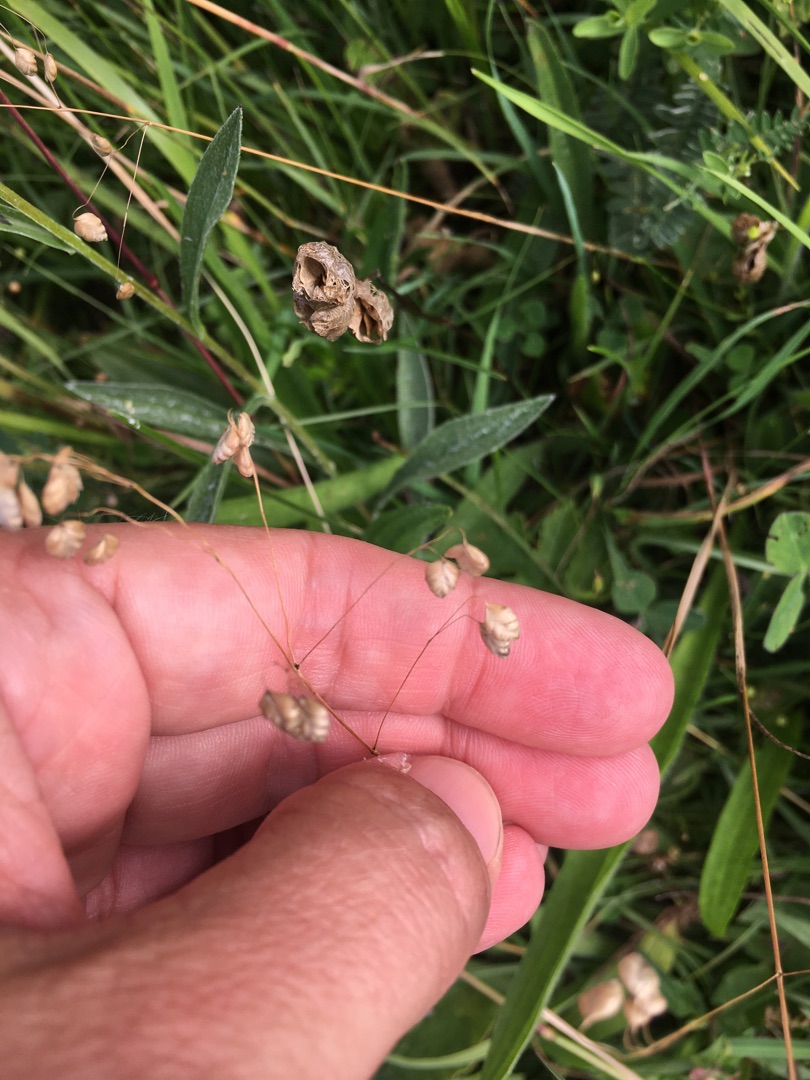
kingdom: Plantae
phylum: Tracheophyta
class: Liliopsida
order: Poales
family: Poaceae
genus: Briza
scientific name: Briza media
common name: Hjertegræs
